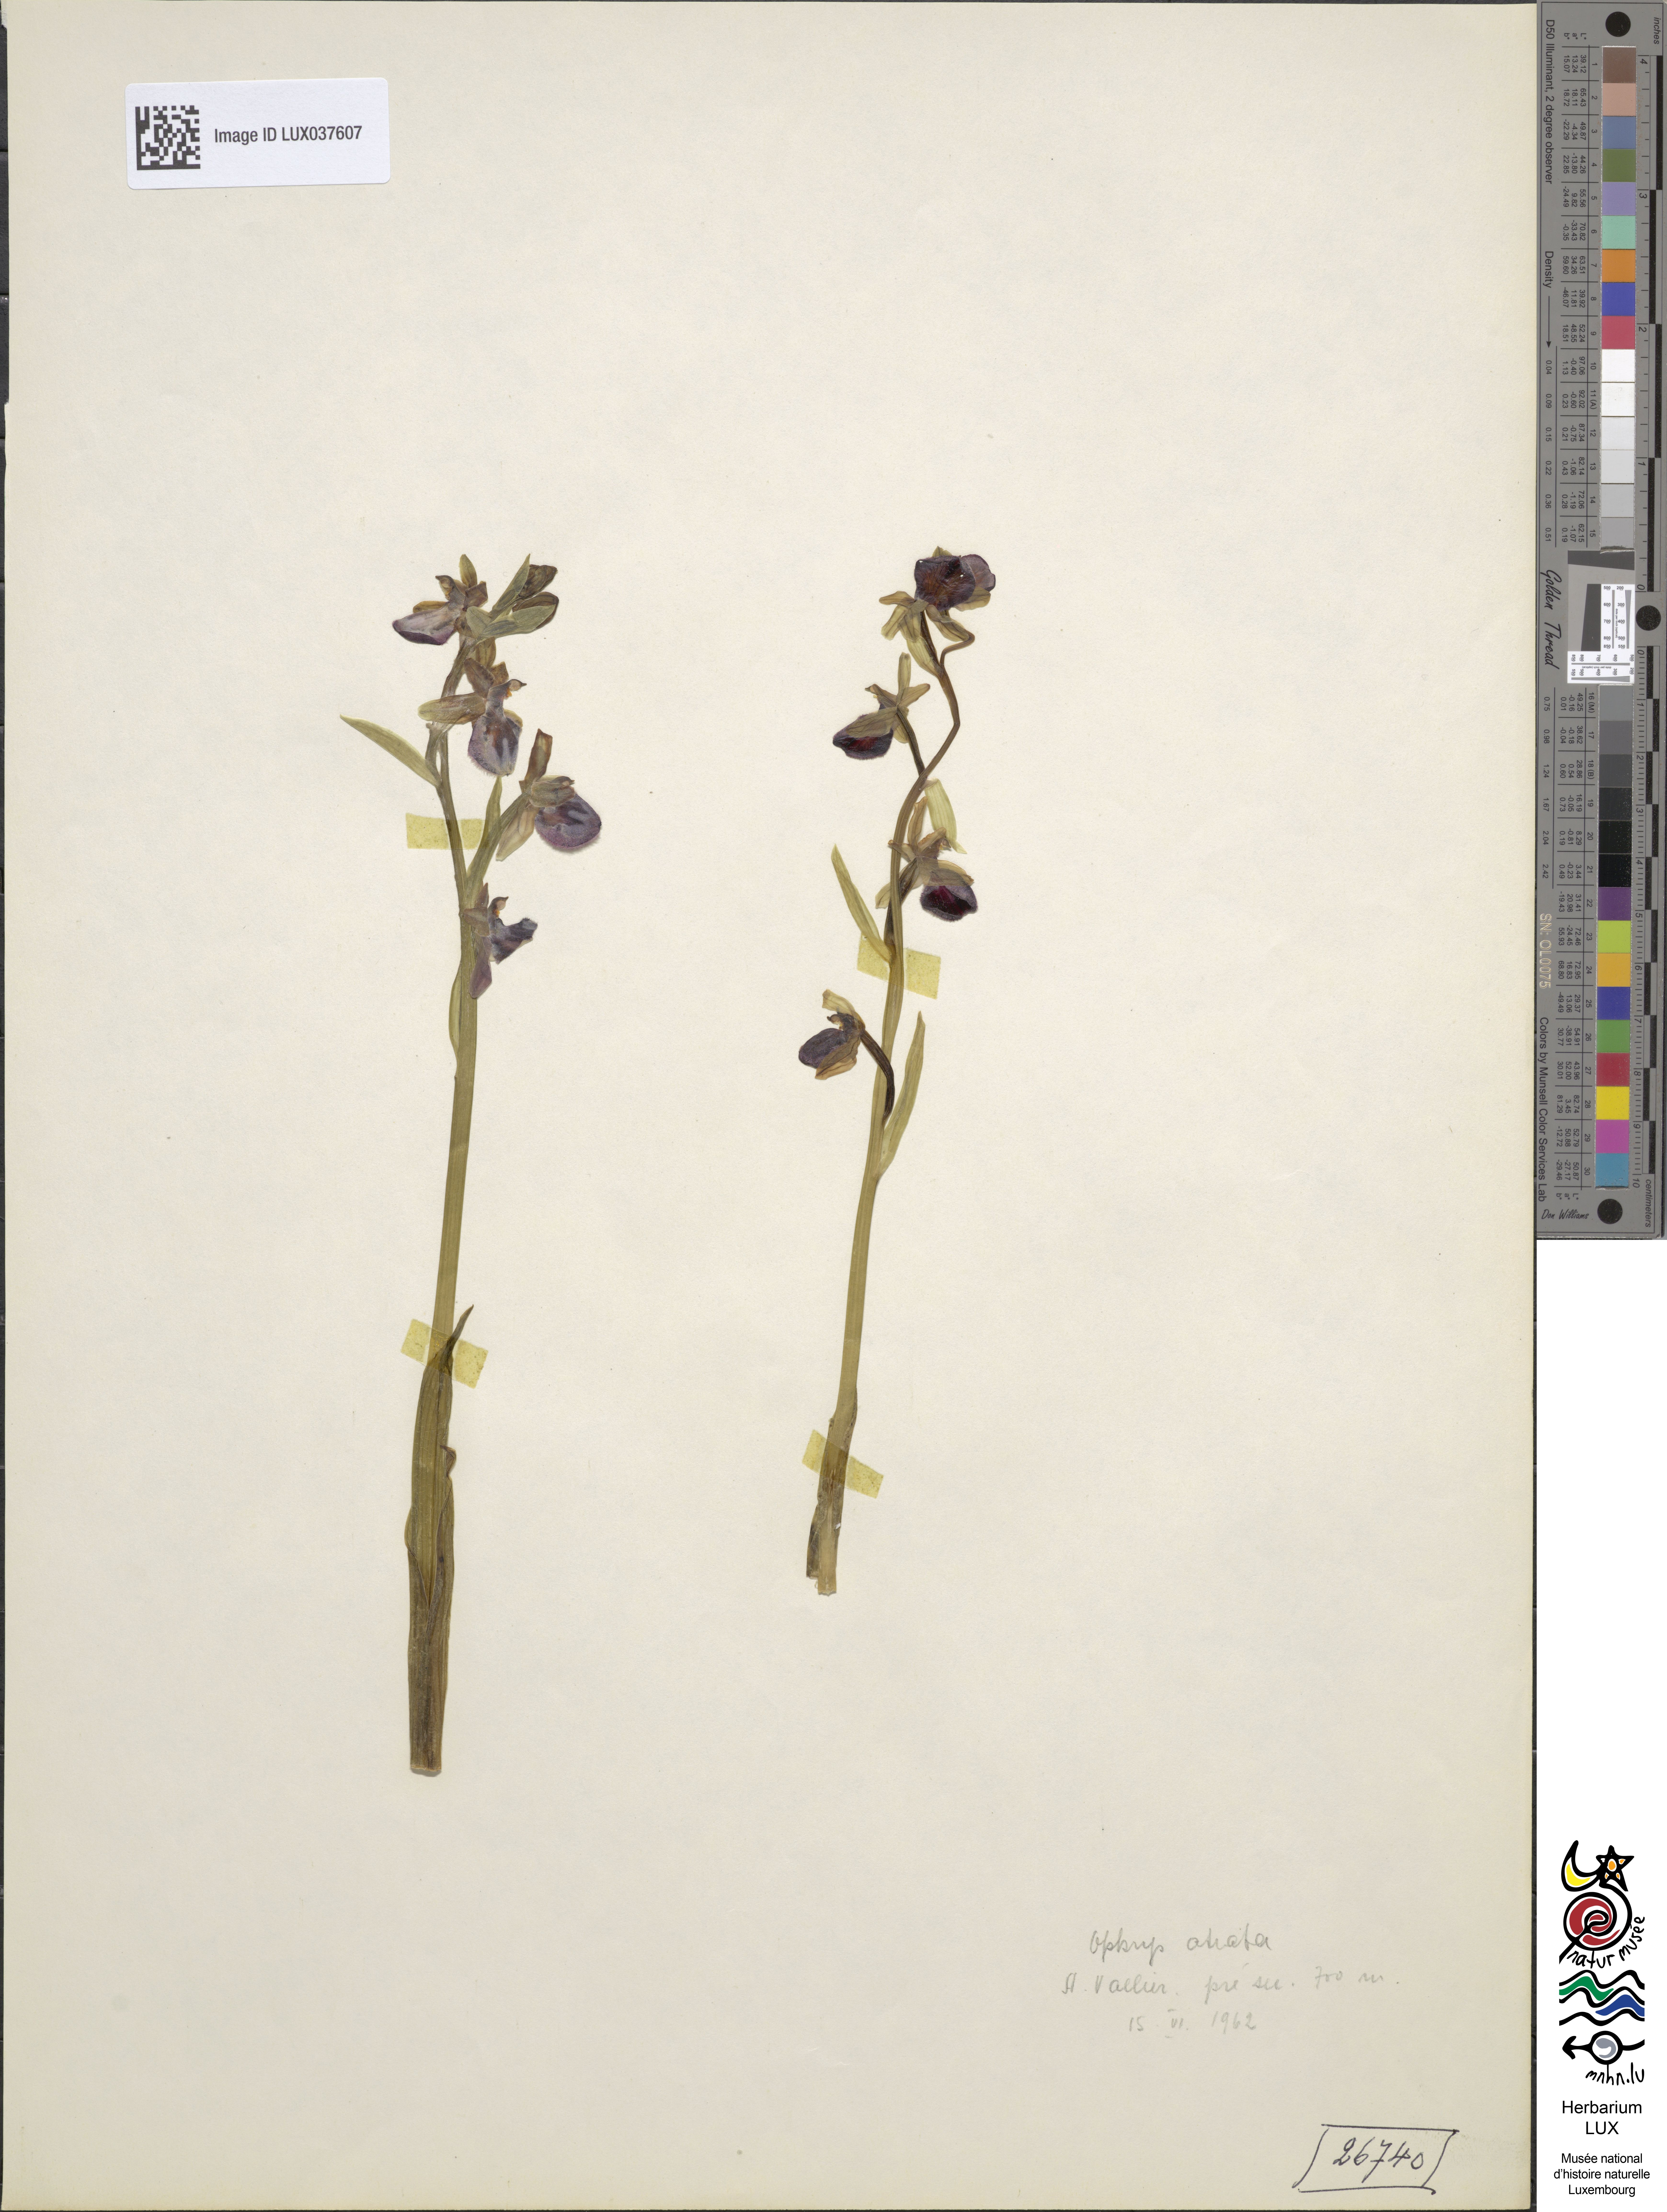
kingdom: Plantae
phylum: Tracheophyta
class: Liliopsida
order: Asparagales
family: Orchidaceae
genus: Ophrys
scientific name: Ophrys sphegodes
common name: Early spider-orchid
